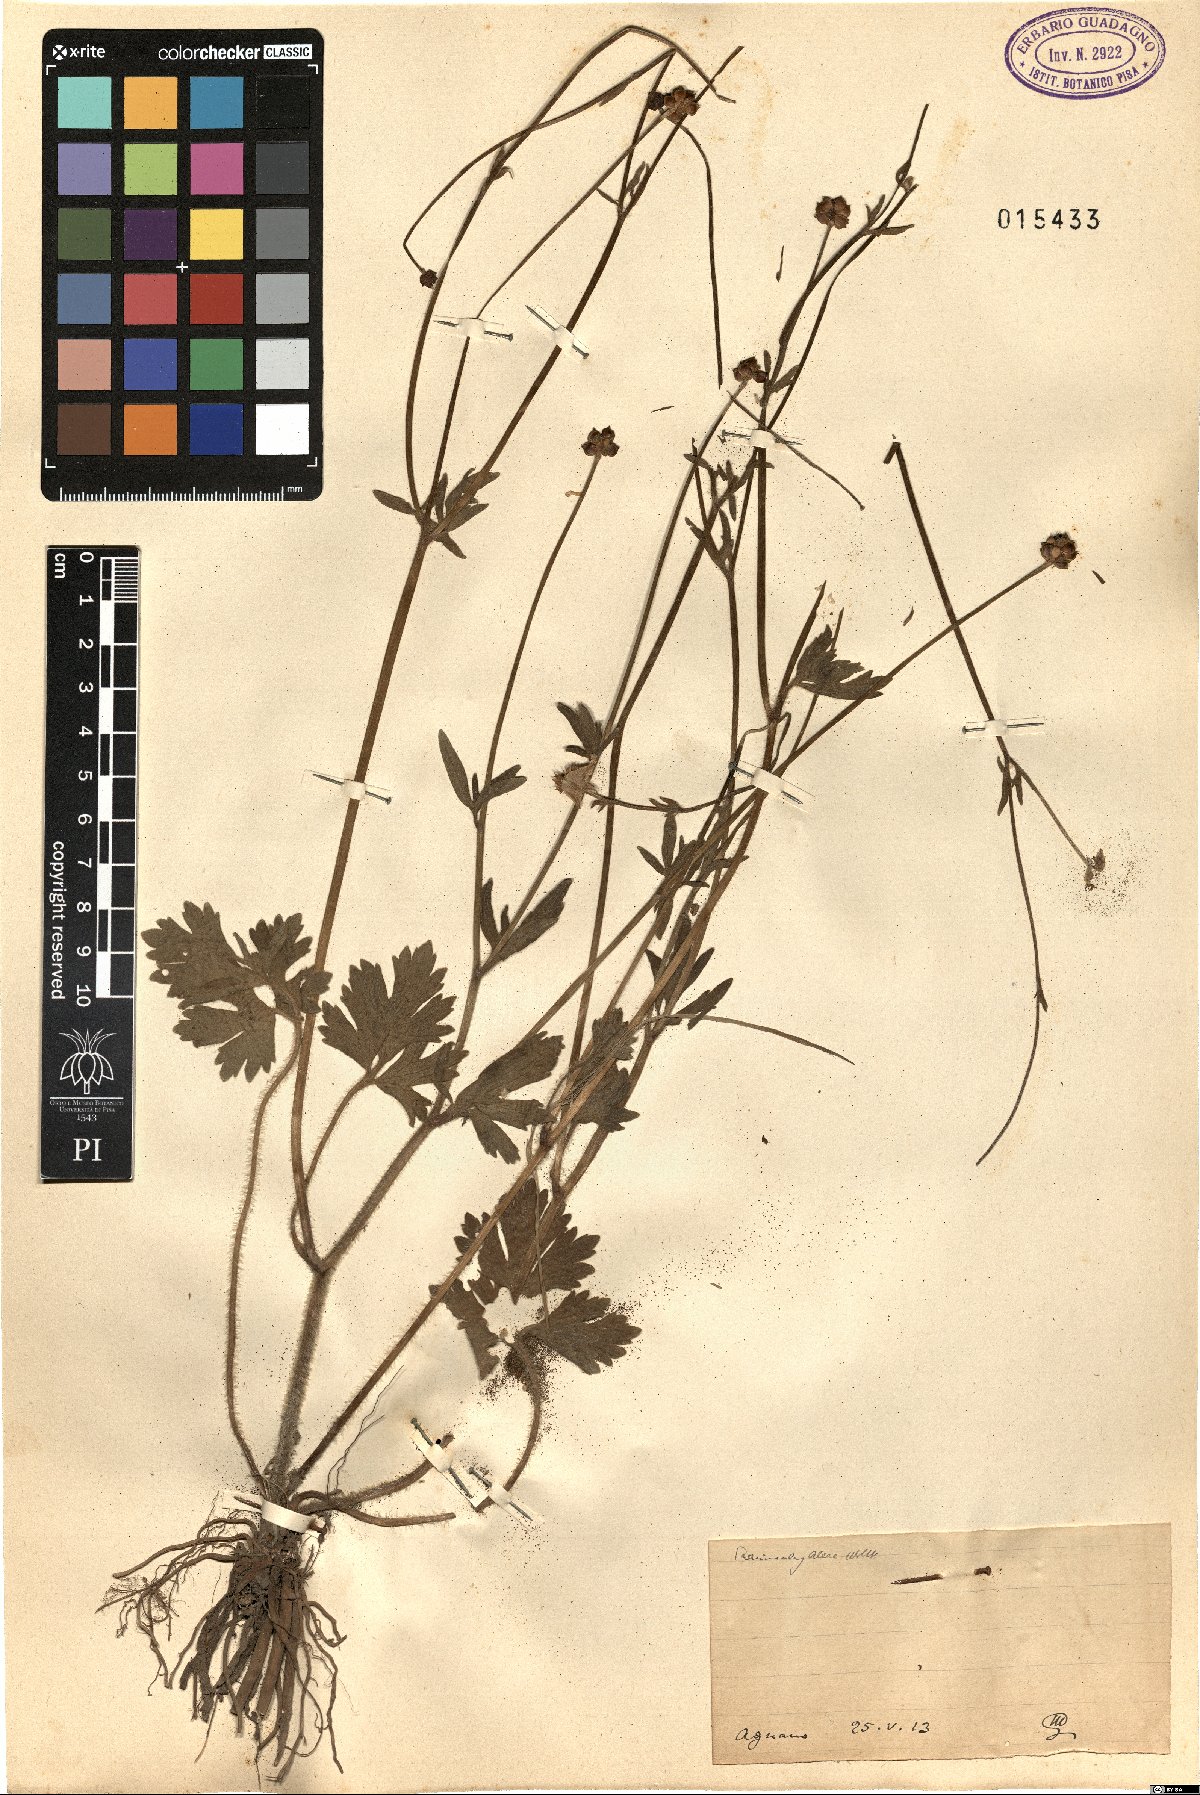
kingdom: Plantae
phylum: Tracheophyta
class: Magnoliopsida
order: Ranunculales
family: Ranunculaceae
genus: Ranunculus
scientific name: Ranunculus neapolitanus
